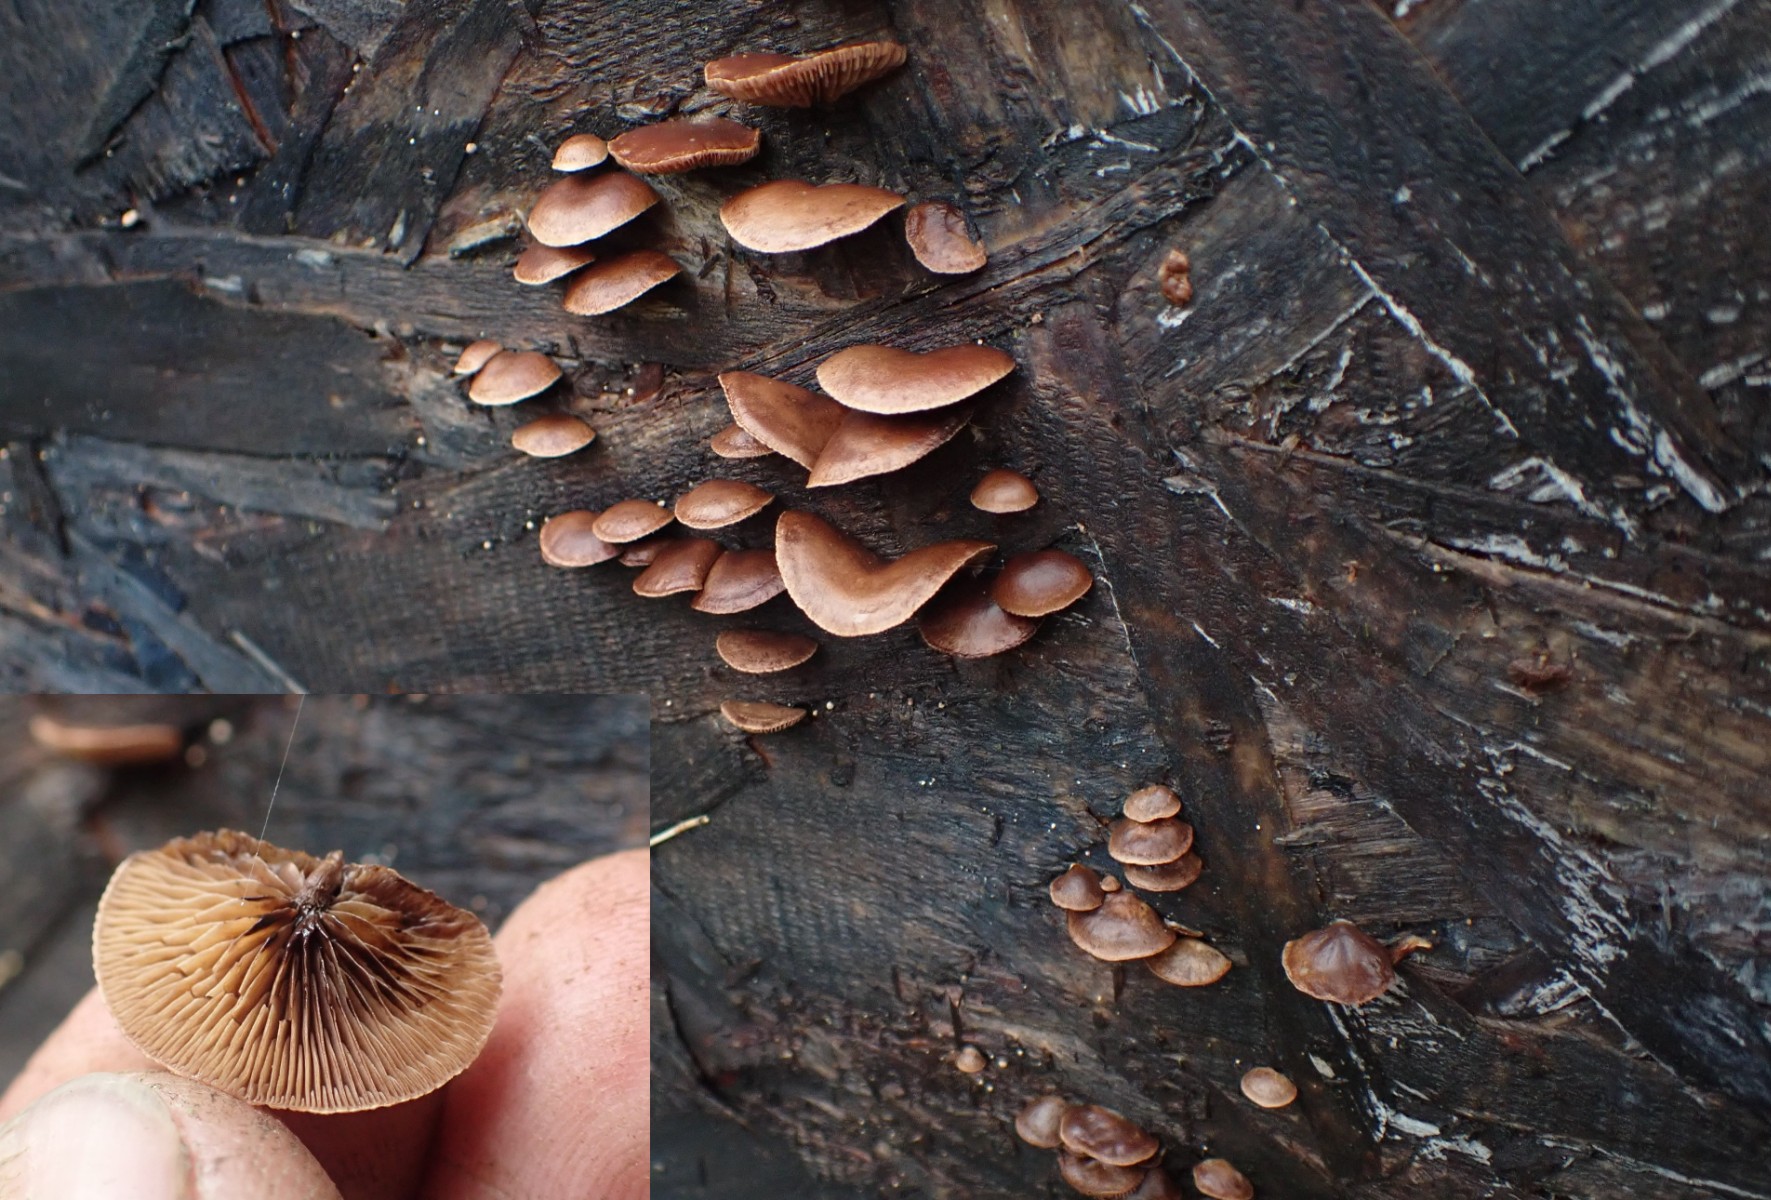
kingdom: Fungi
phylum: Basidiomycota
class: Agaricomycetes
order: Agaricales
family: Strophariaceae
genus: Deconica
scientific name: Deconica horizontalis
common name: ved-stråhat
